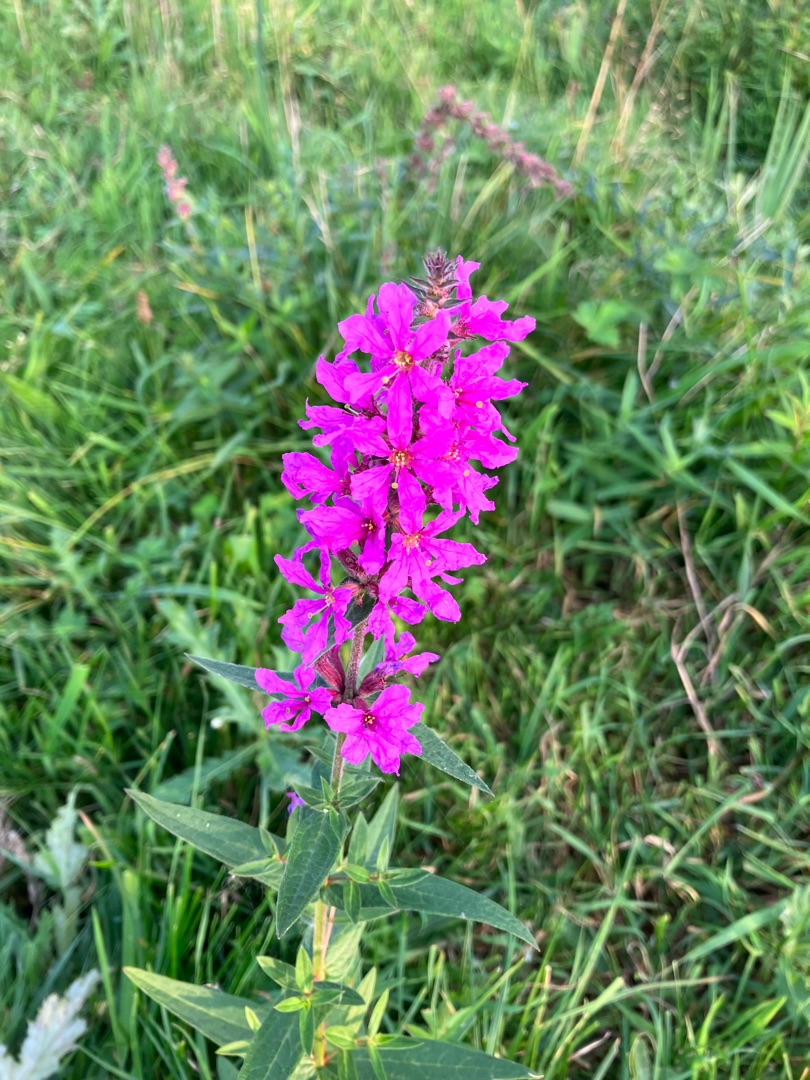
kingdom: Plantae
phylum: Tracheophyta
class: Magnoliopsida
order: Myrtales
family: Lythraceae
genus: Lythrum
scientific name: Lythrum salicaria
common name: Kattehale
